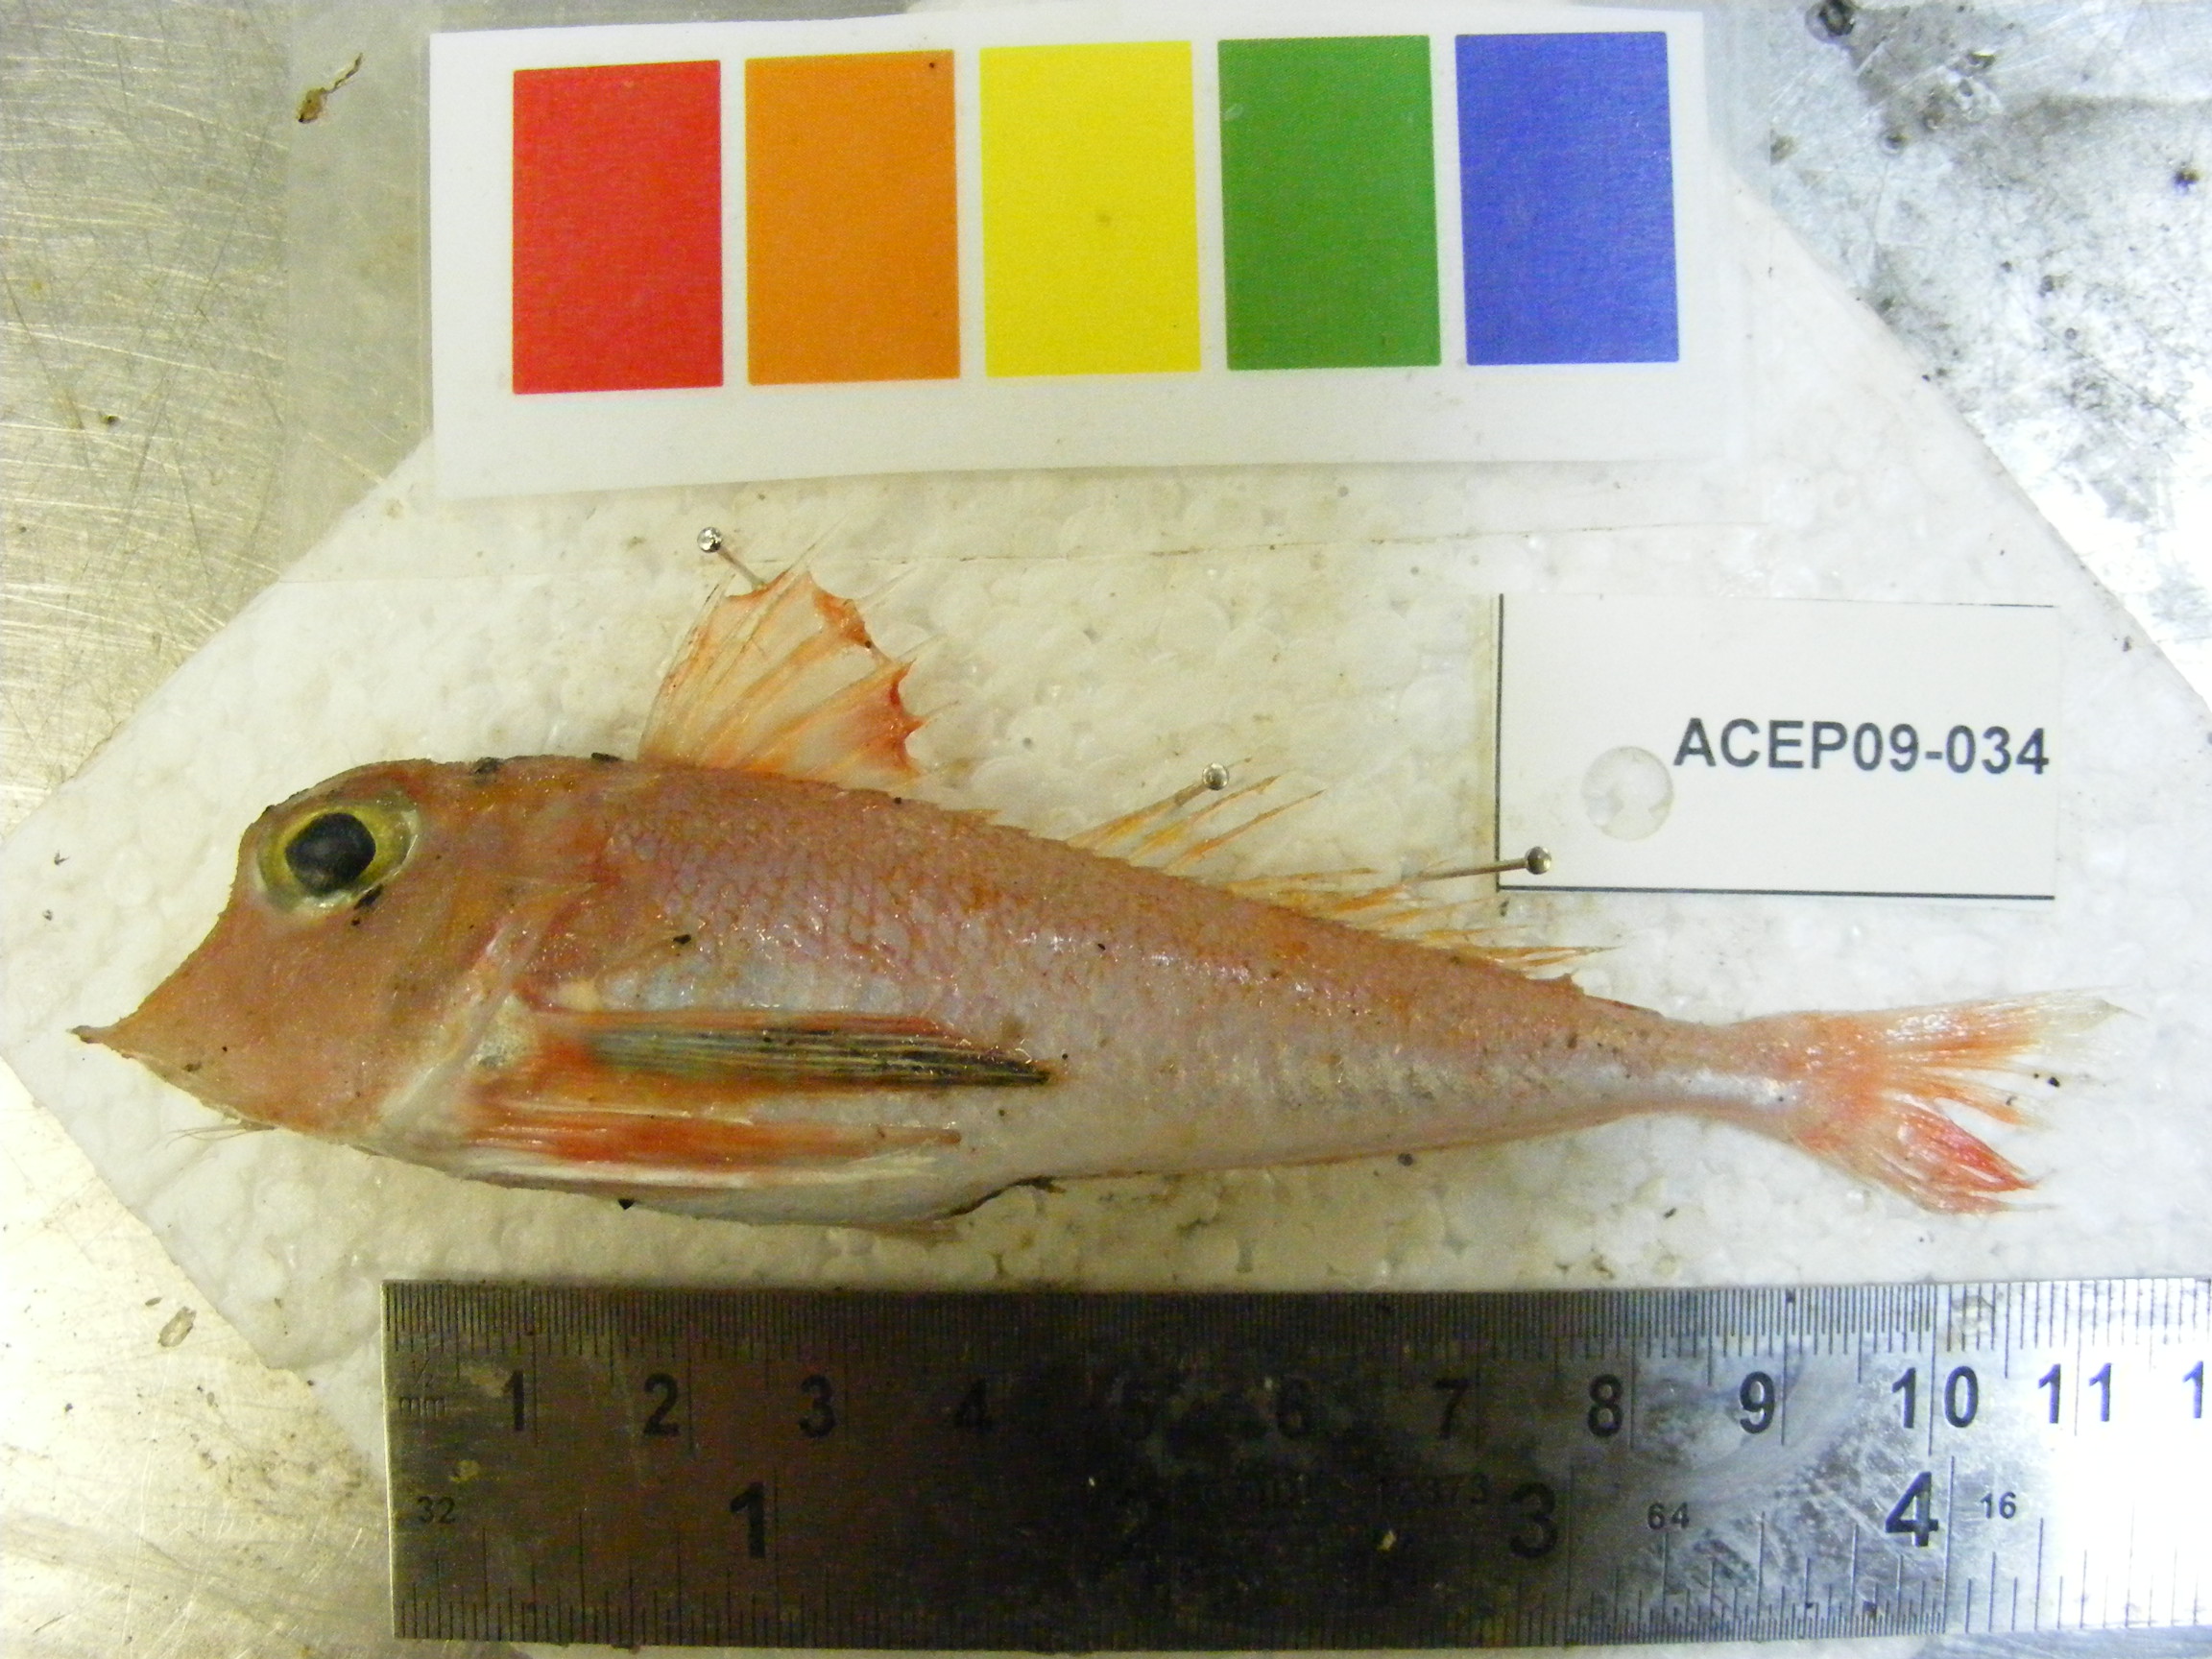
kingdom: Animalia
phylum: Chordata
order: Scorpaeniformes
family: Triglidae
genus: Lepidotrigla
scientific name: Lepidotrigla faurei
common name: Prickly gurnard
